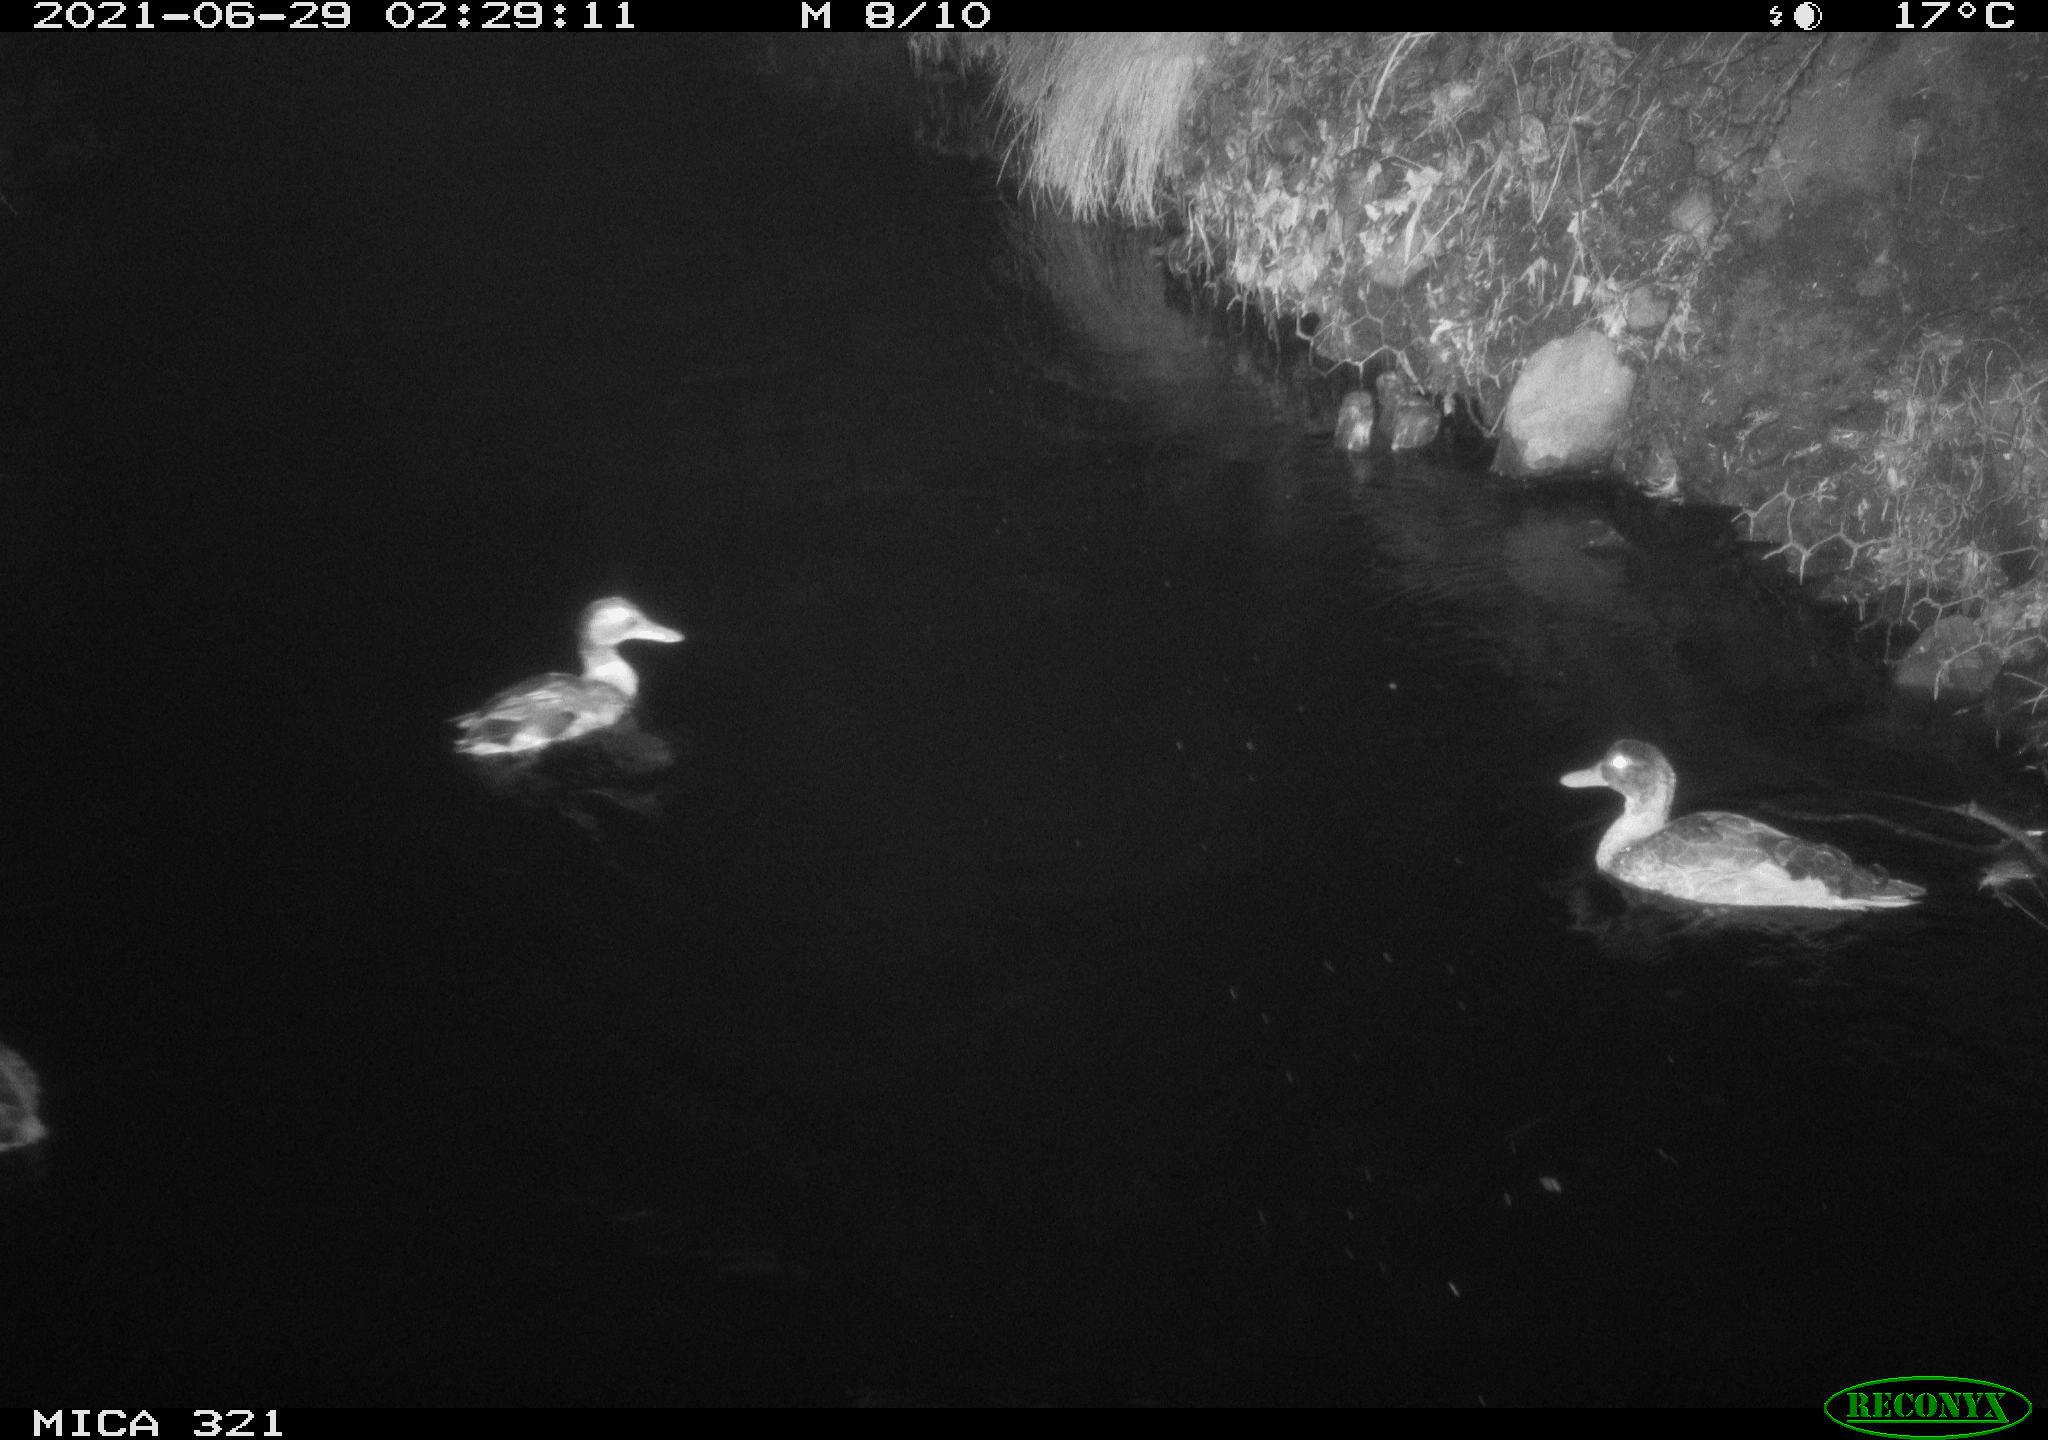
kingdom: Animalia
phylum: Chordata
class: Aves
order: Anseriformes
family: Anatidae
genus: Anas
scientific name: Anas platyrhynchos
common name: Mallard
